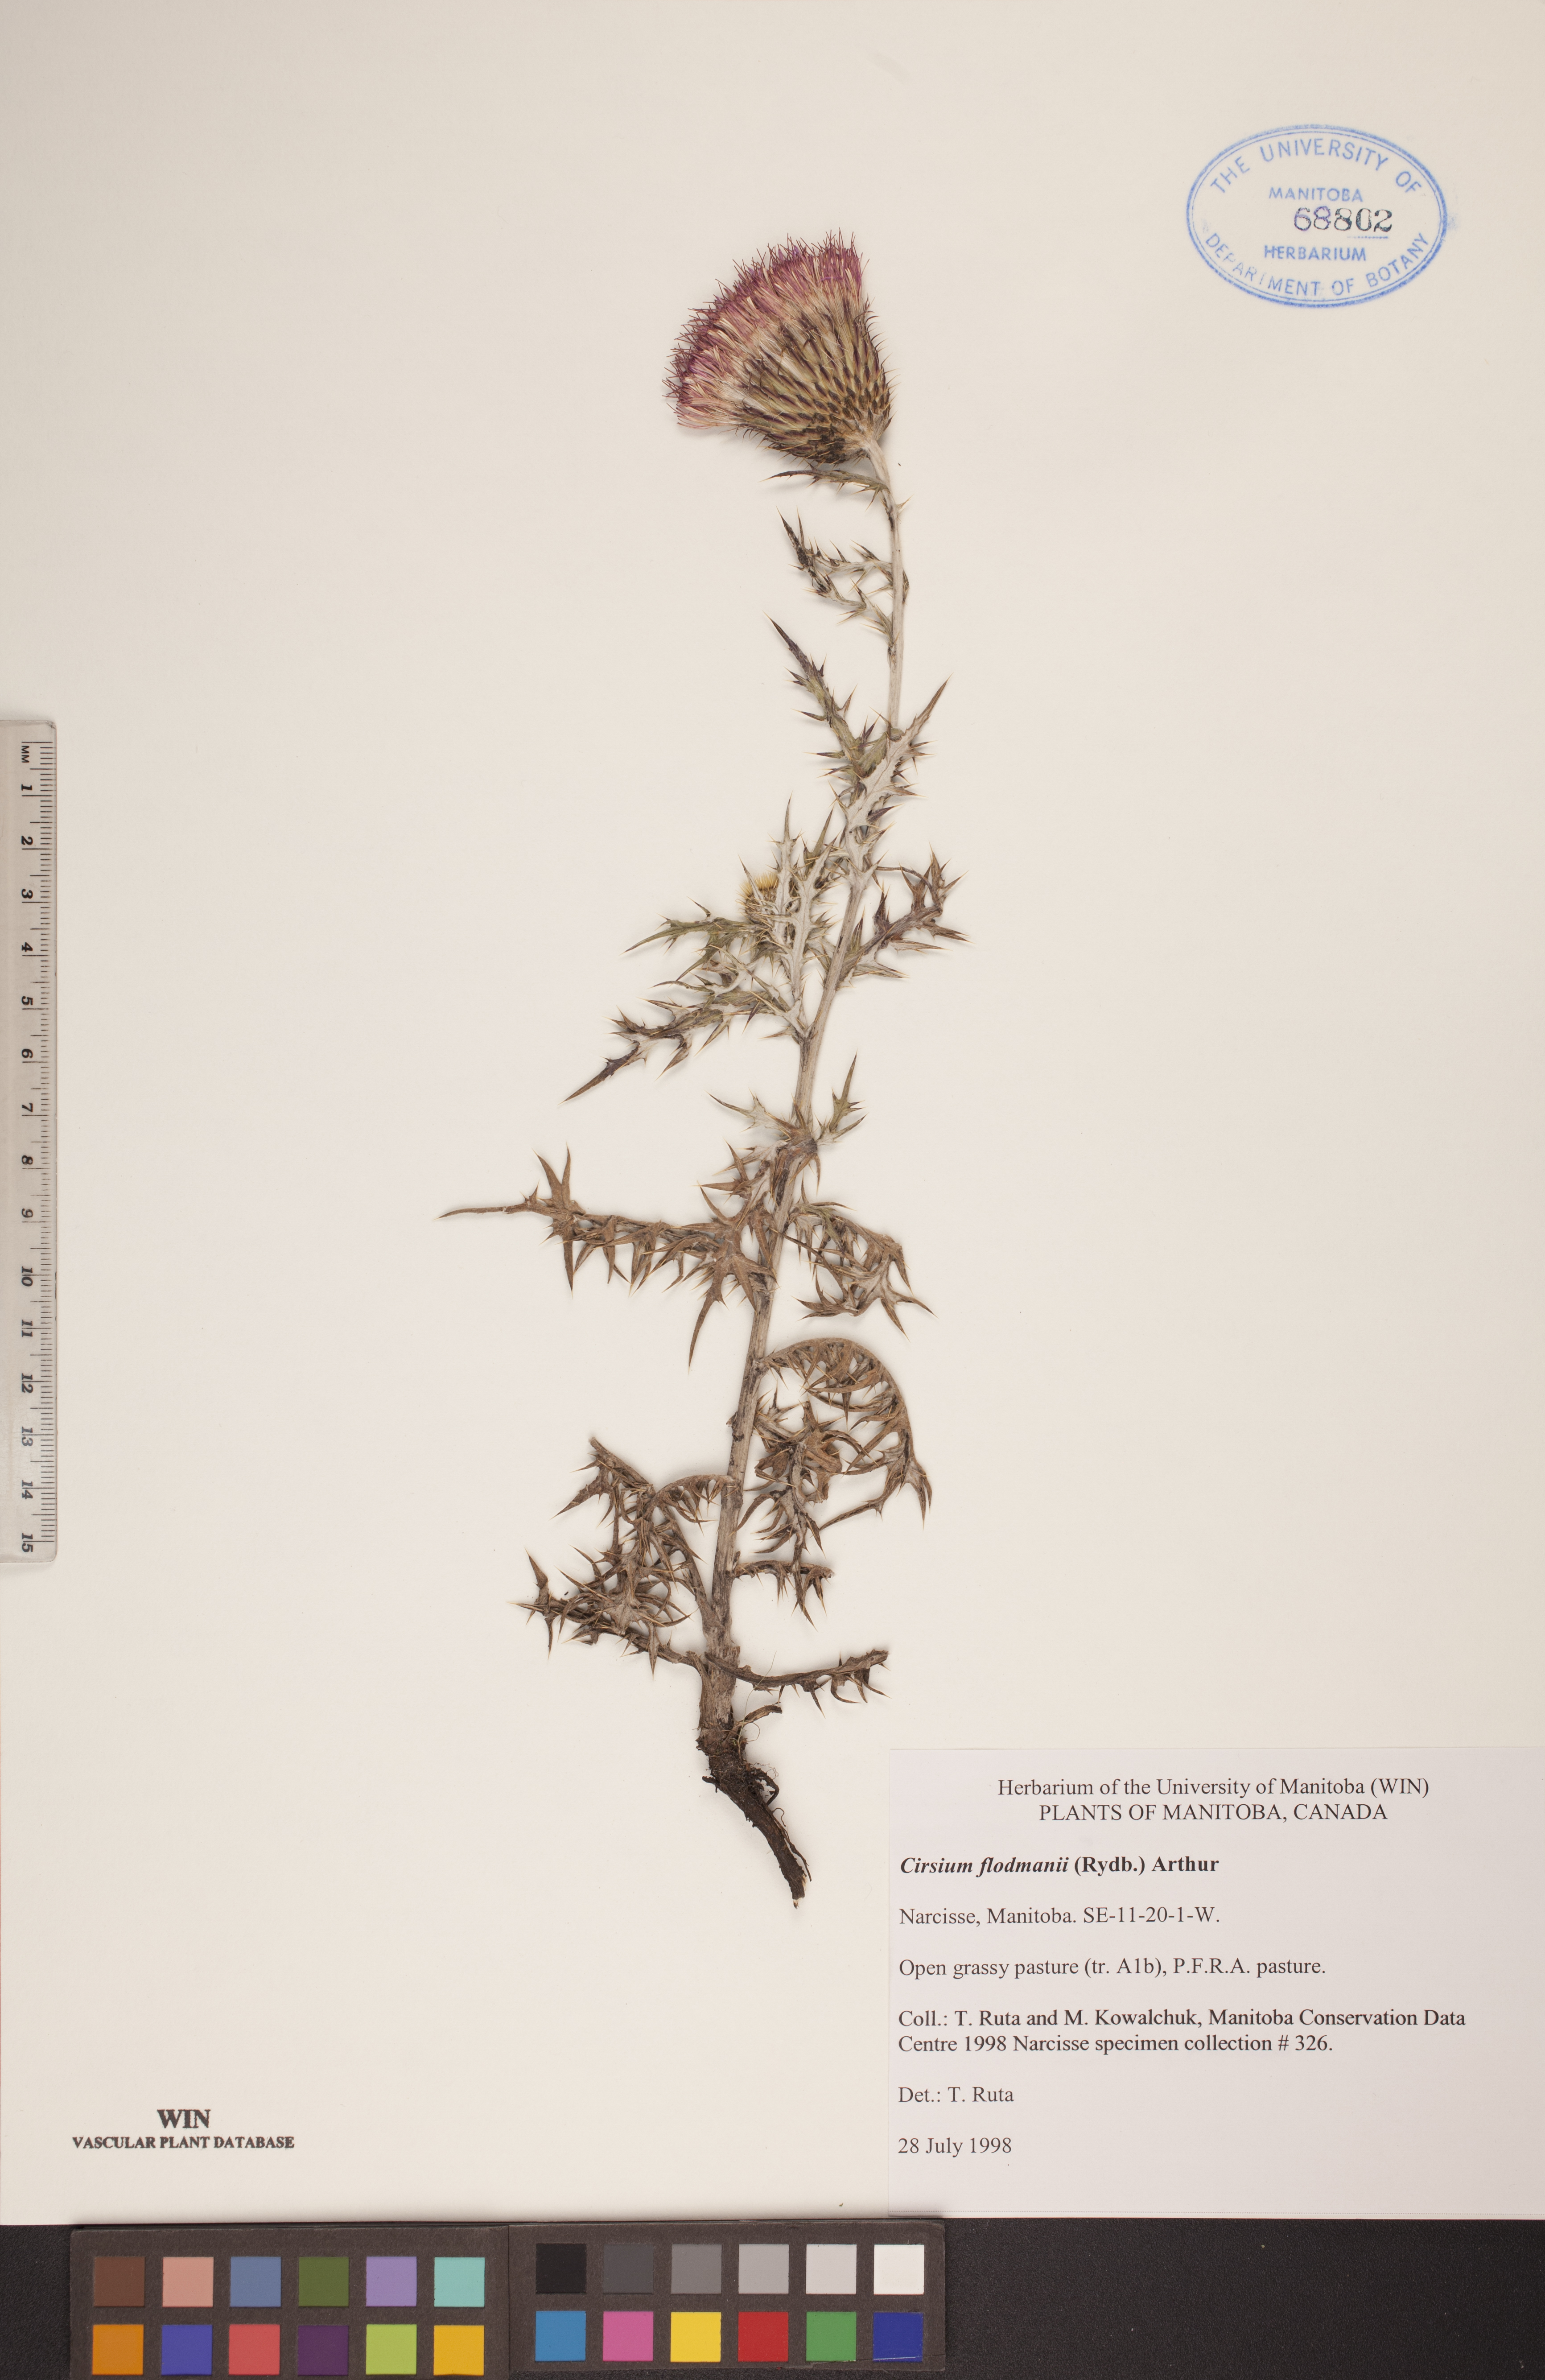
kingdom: Plantae
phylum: Tracheophyta
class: Magnoliopsida
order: Asterales
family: Asteraceae
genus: Cirsium
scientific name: Cirsium flodmanii
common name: Flodman's thistle
